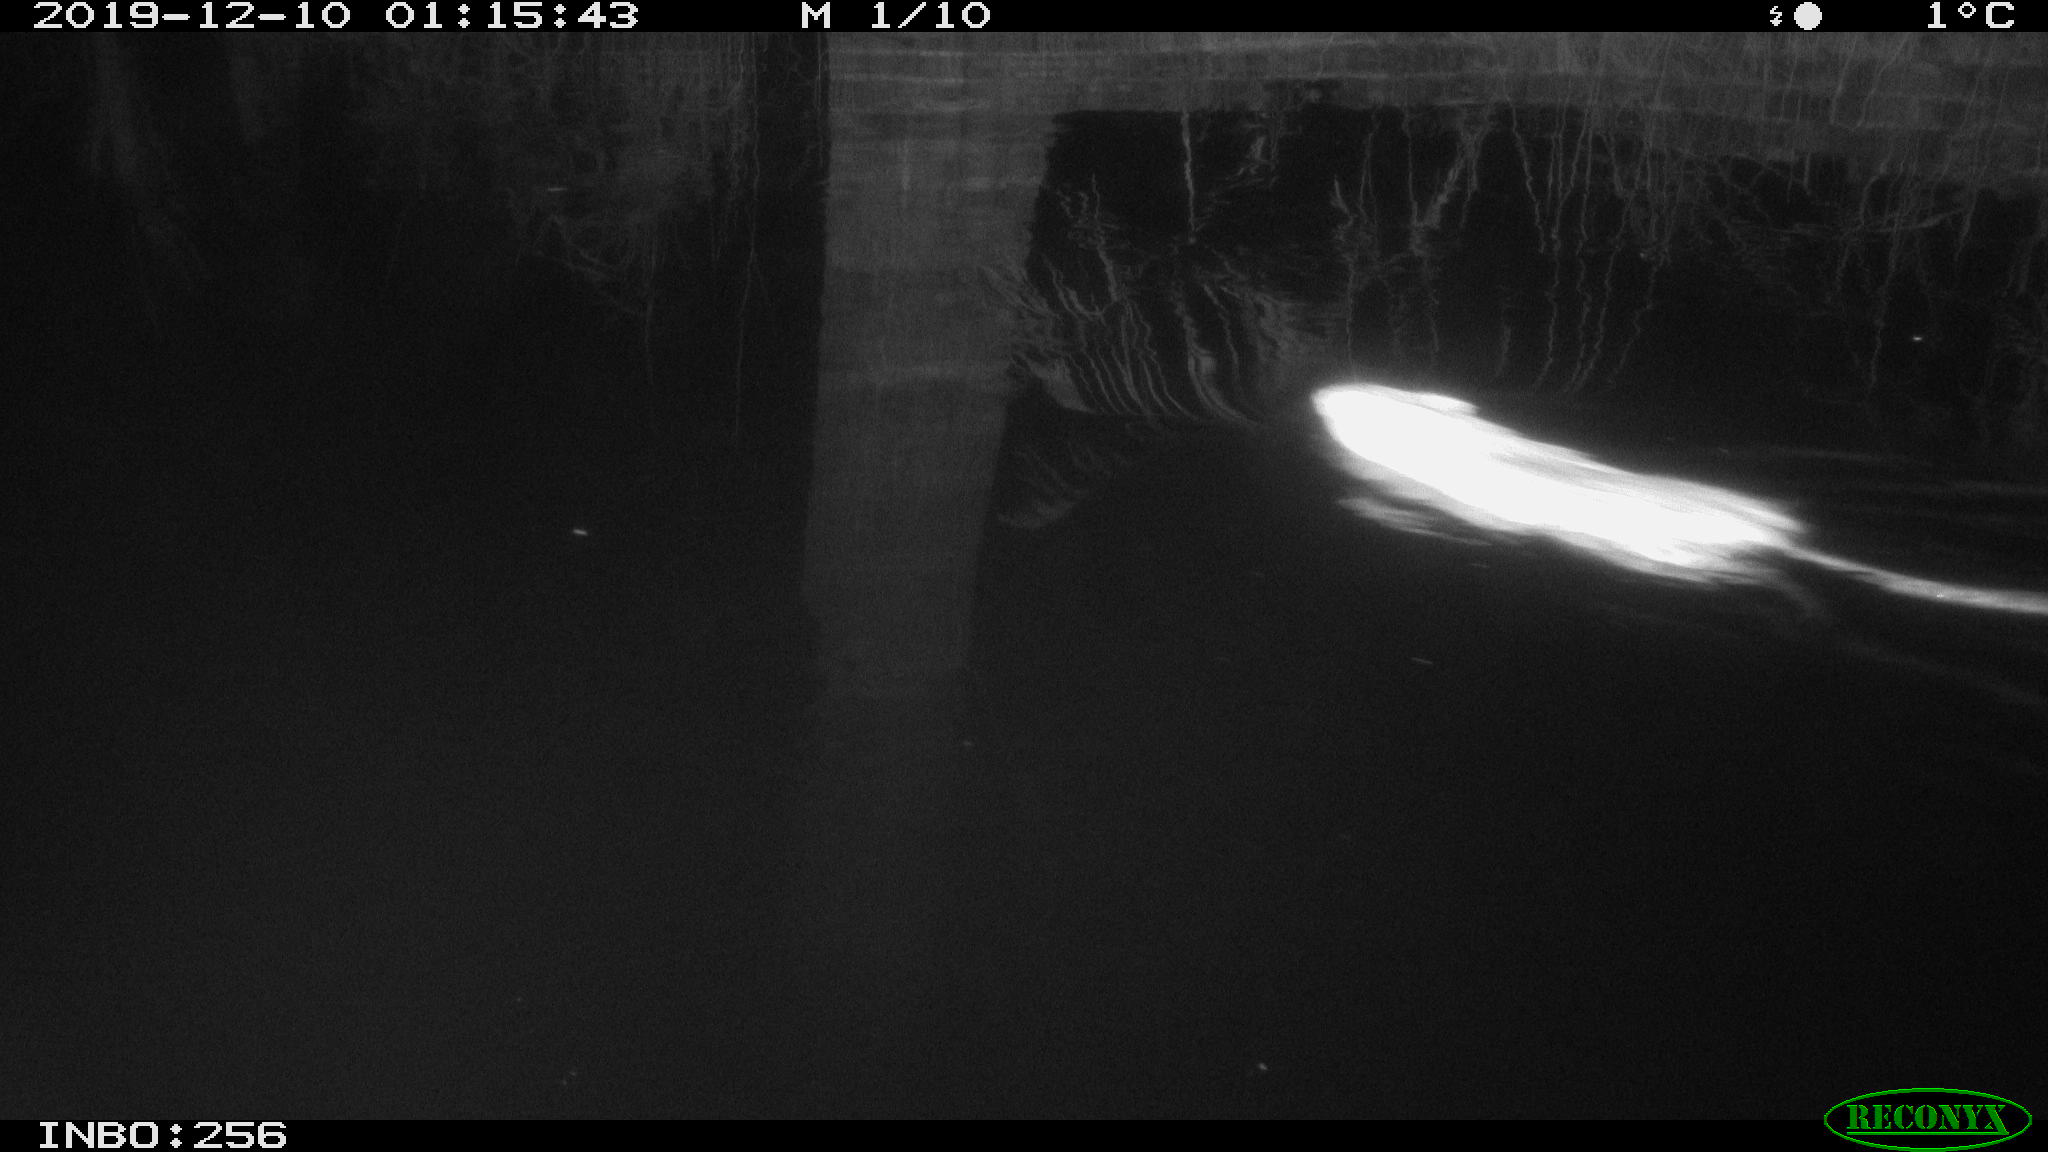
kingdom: Animalia
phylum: Chordata
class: Mammalia
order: Rodentia
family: Cricetidae
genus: Ondatra
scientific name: Ondatra zibethicus
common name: Muskrat
